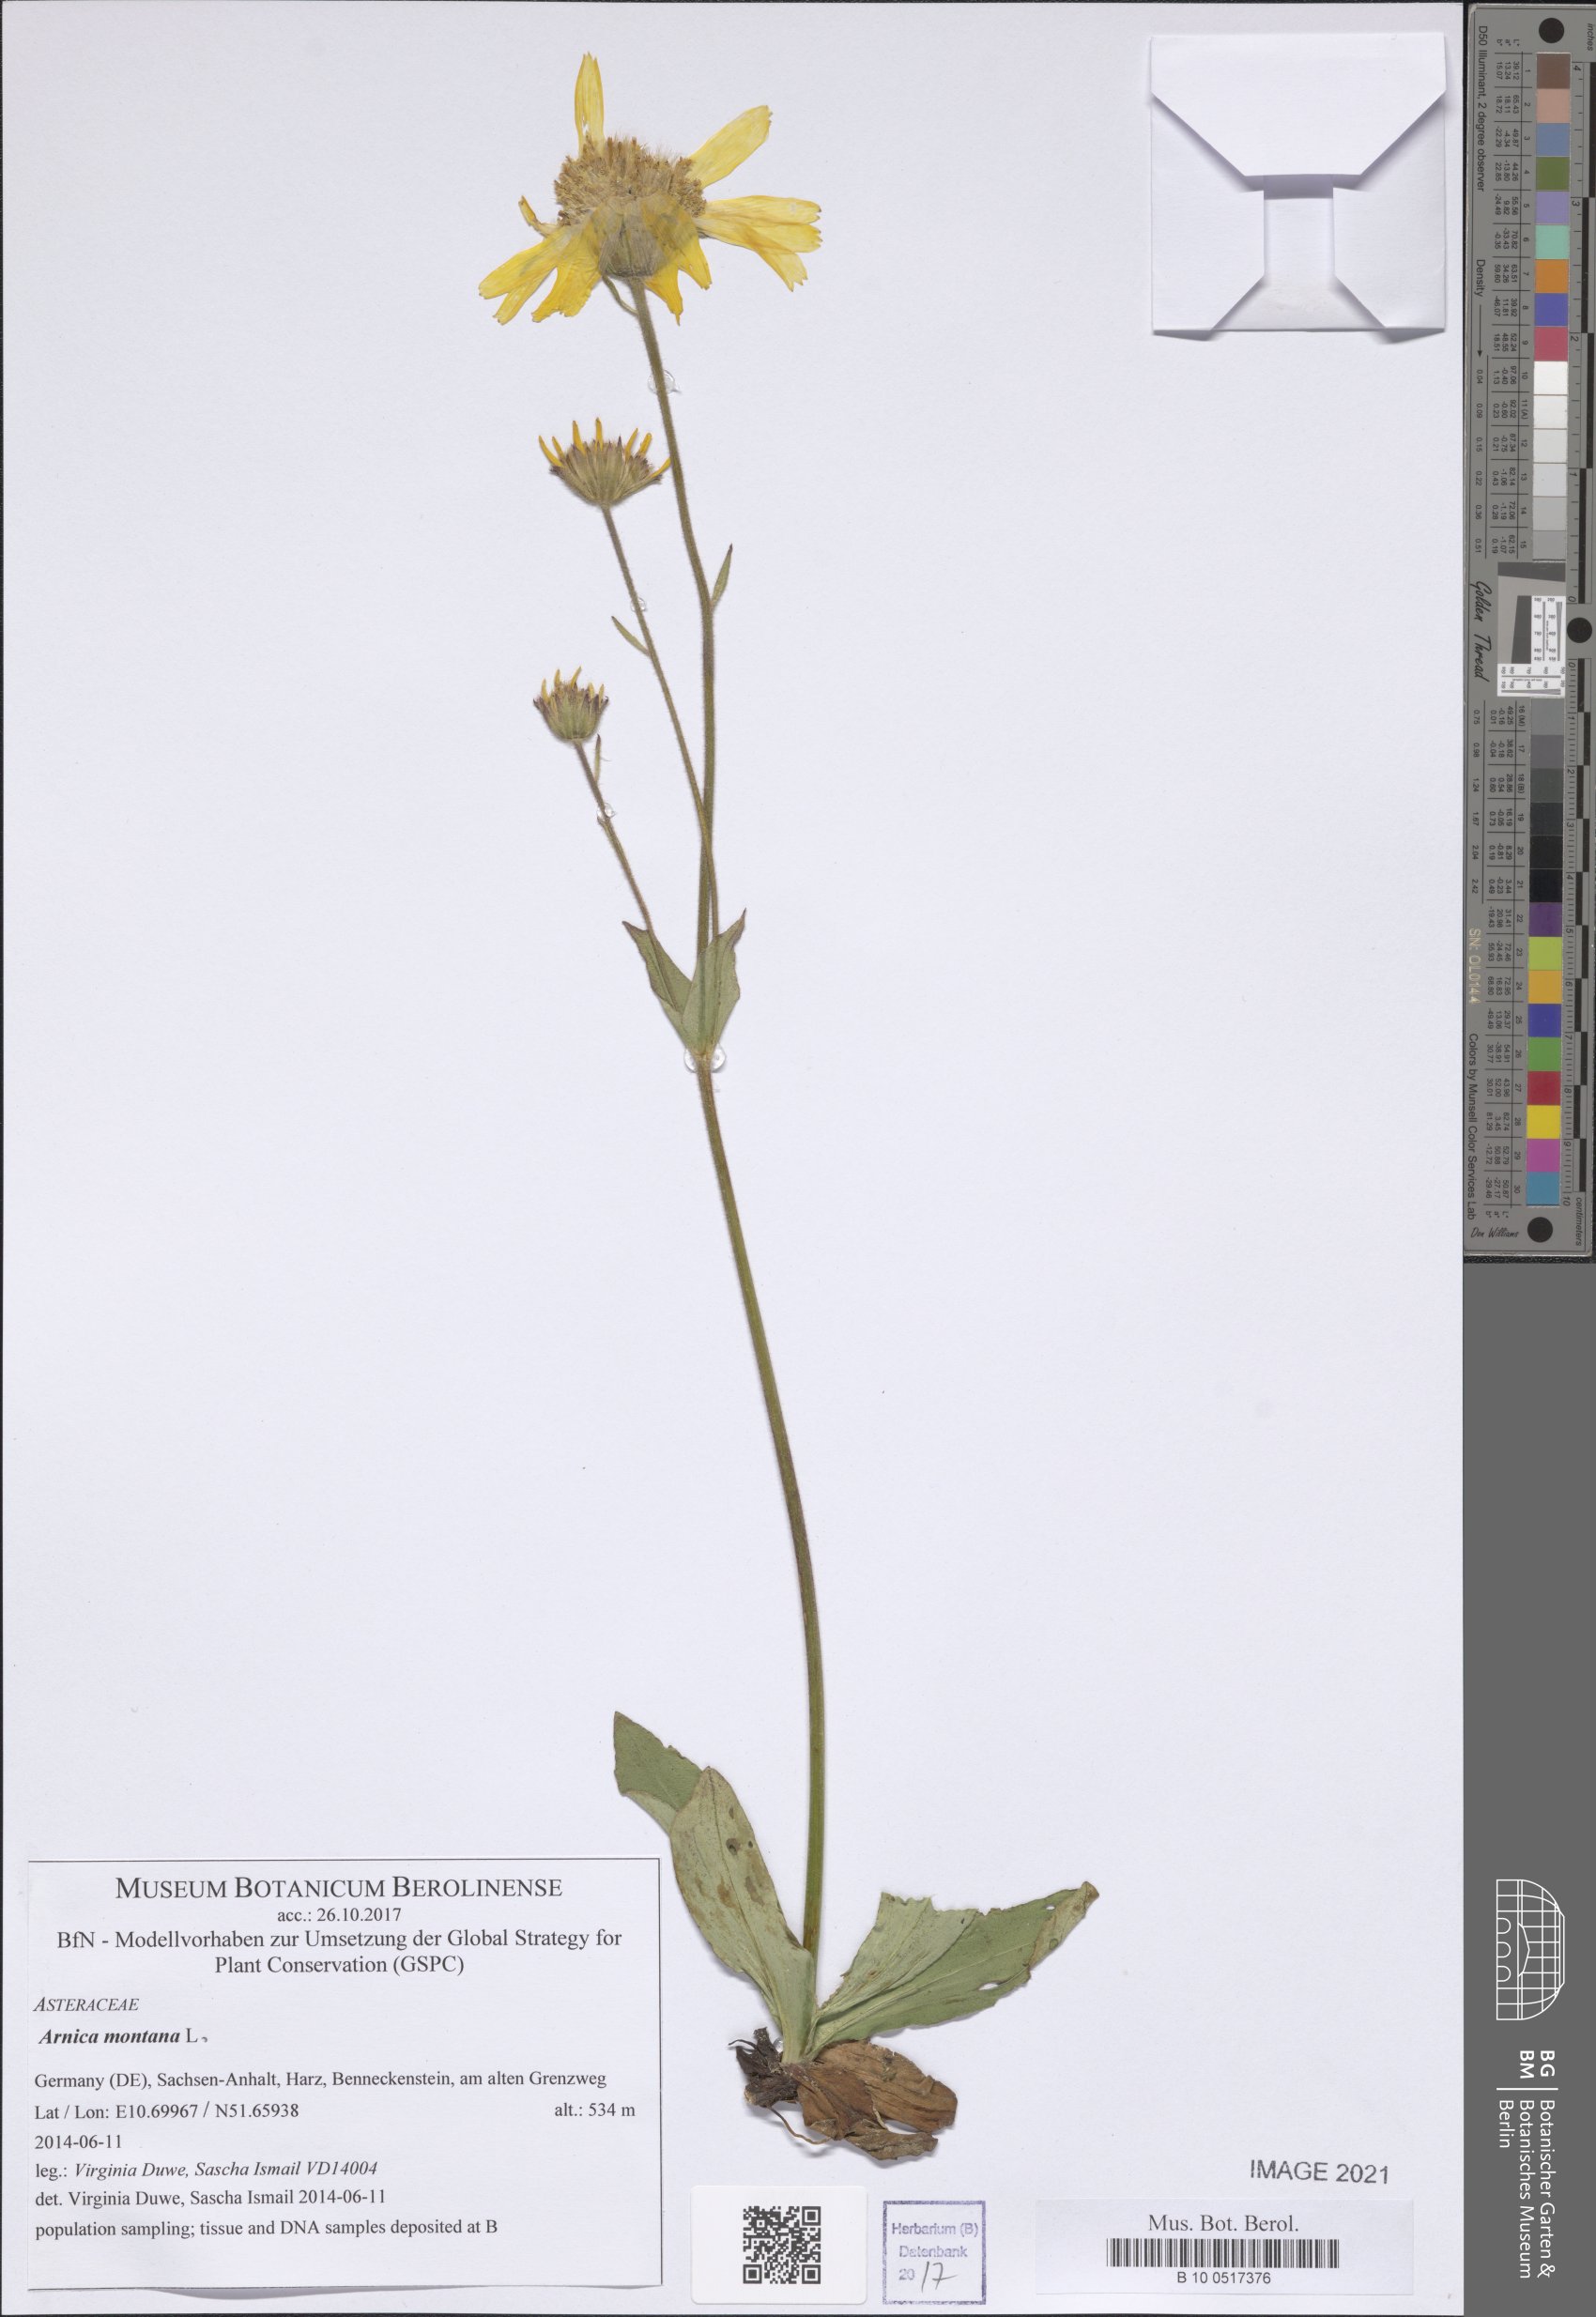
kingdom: Plantae
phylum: Tracheophyta
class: Magnoliopsida
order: Asterales
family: Asteraceae
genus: Arnica
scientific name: Arnica montana
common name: Leopard's bane
